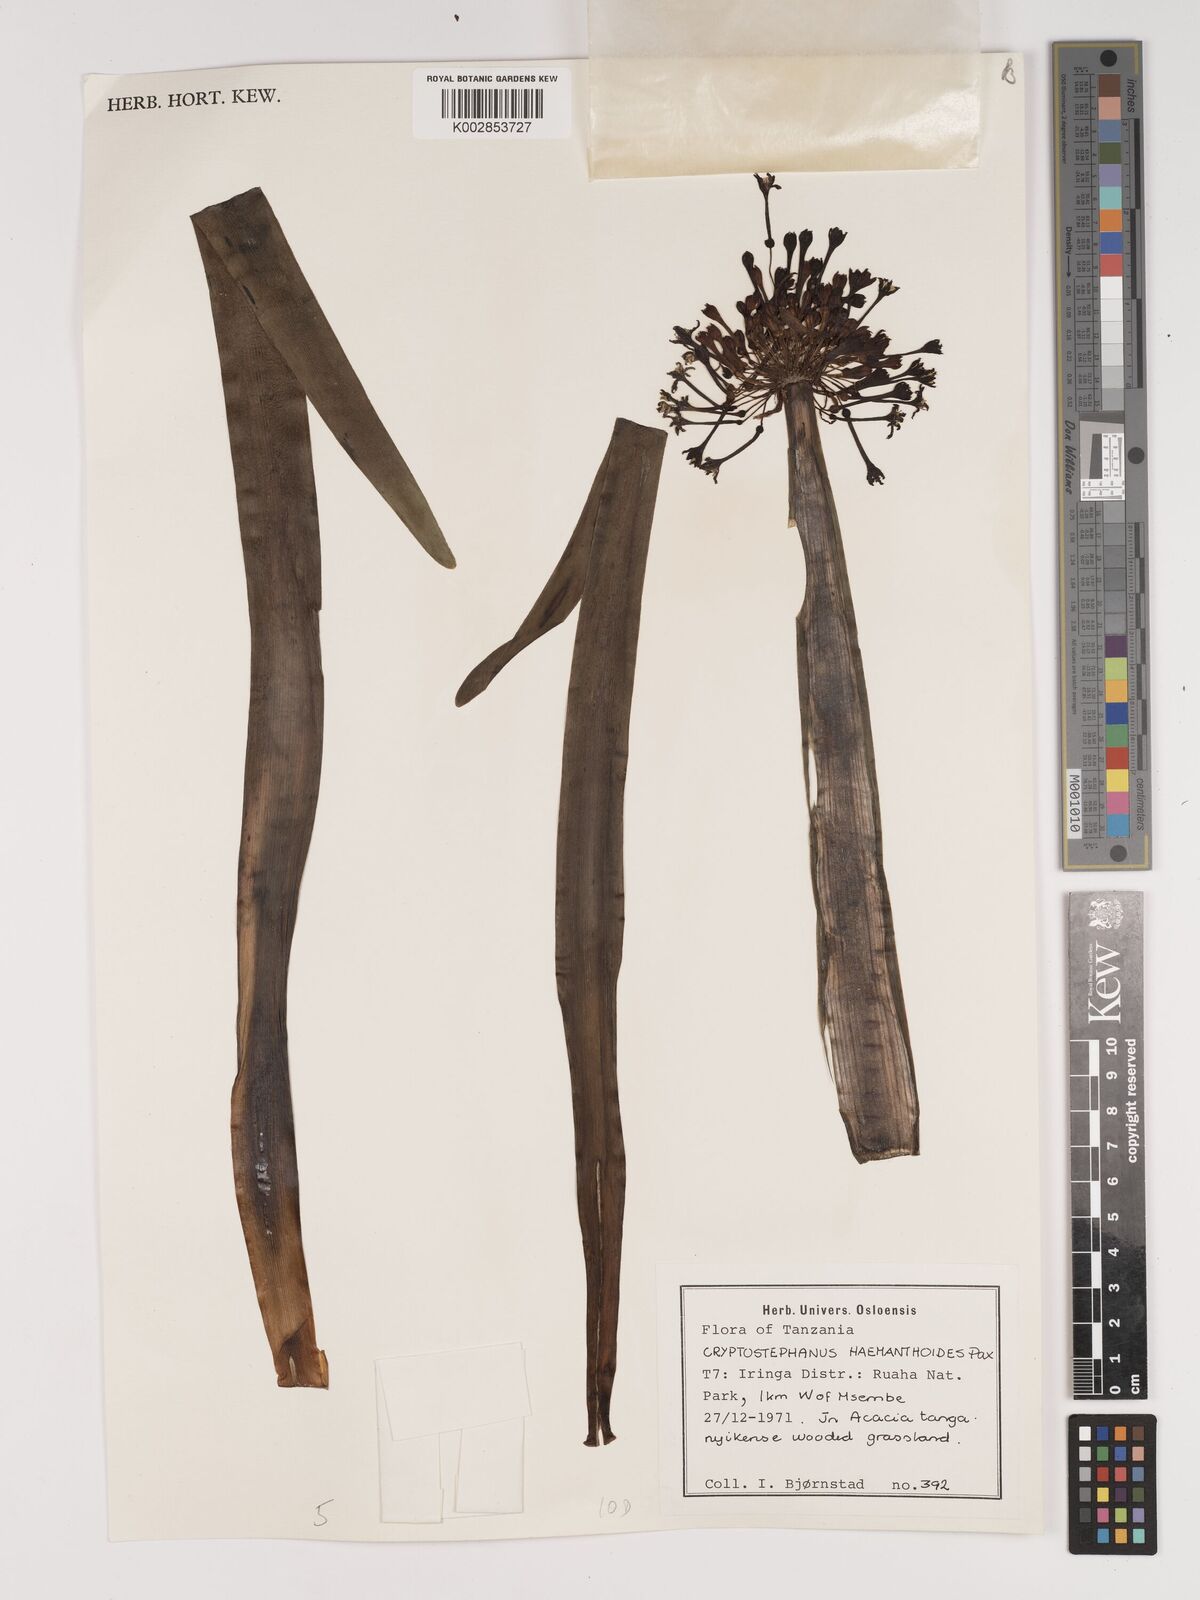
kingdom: Plantae
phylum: Tracheophyta
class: Liliopsida
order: Asparagales
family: Amaryllidaceae
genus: Cryptostephanus
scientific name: Cryptostephanus haemanthoides
